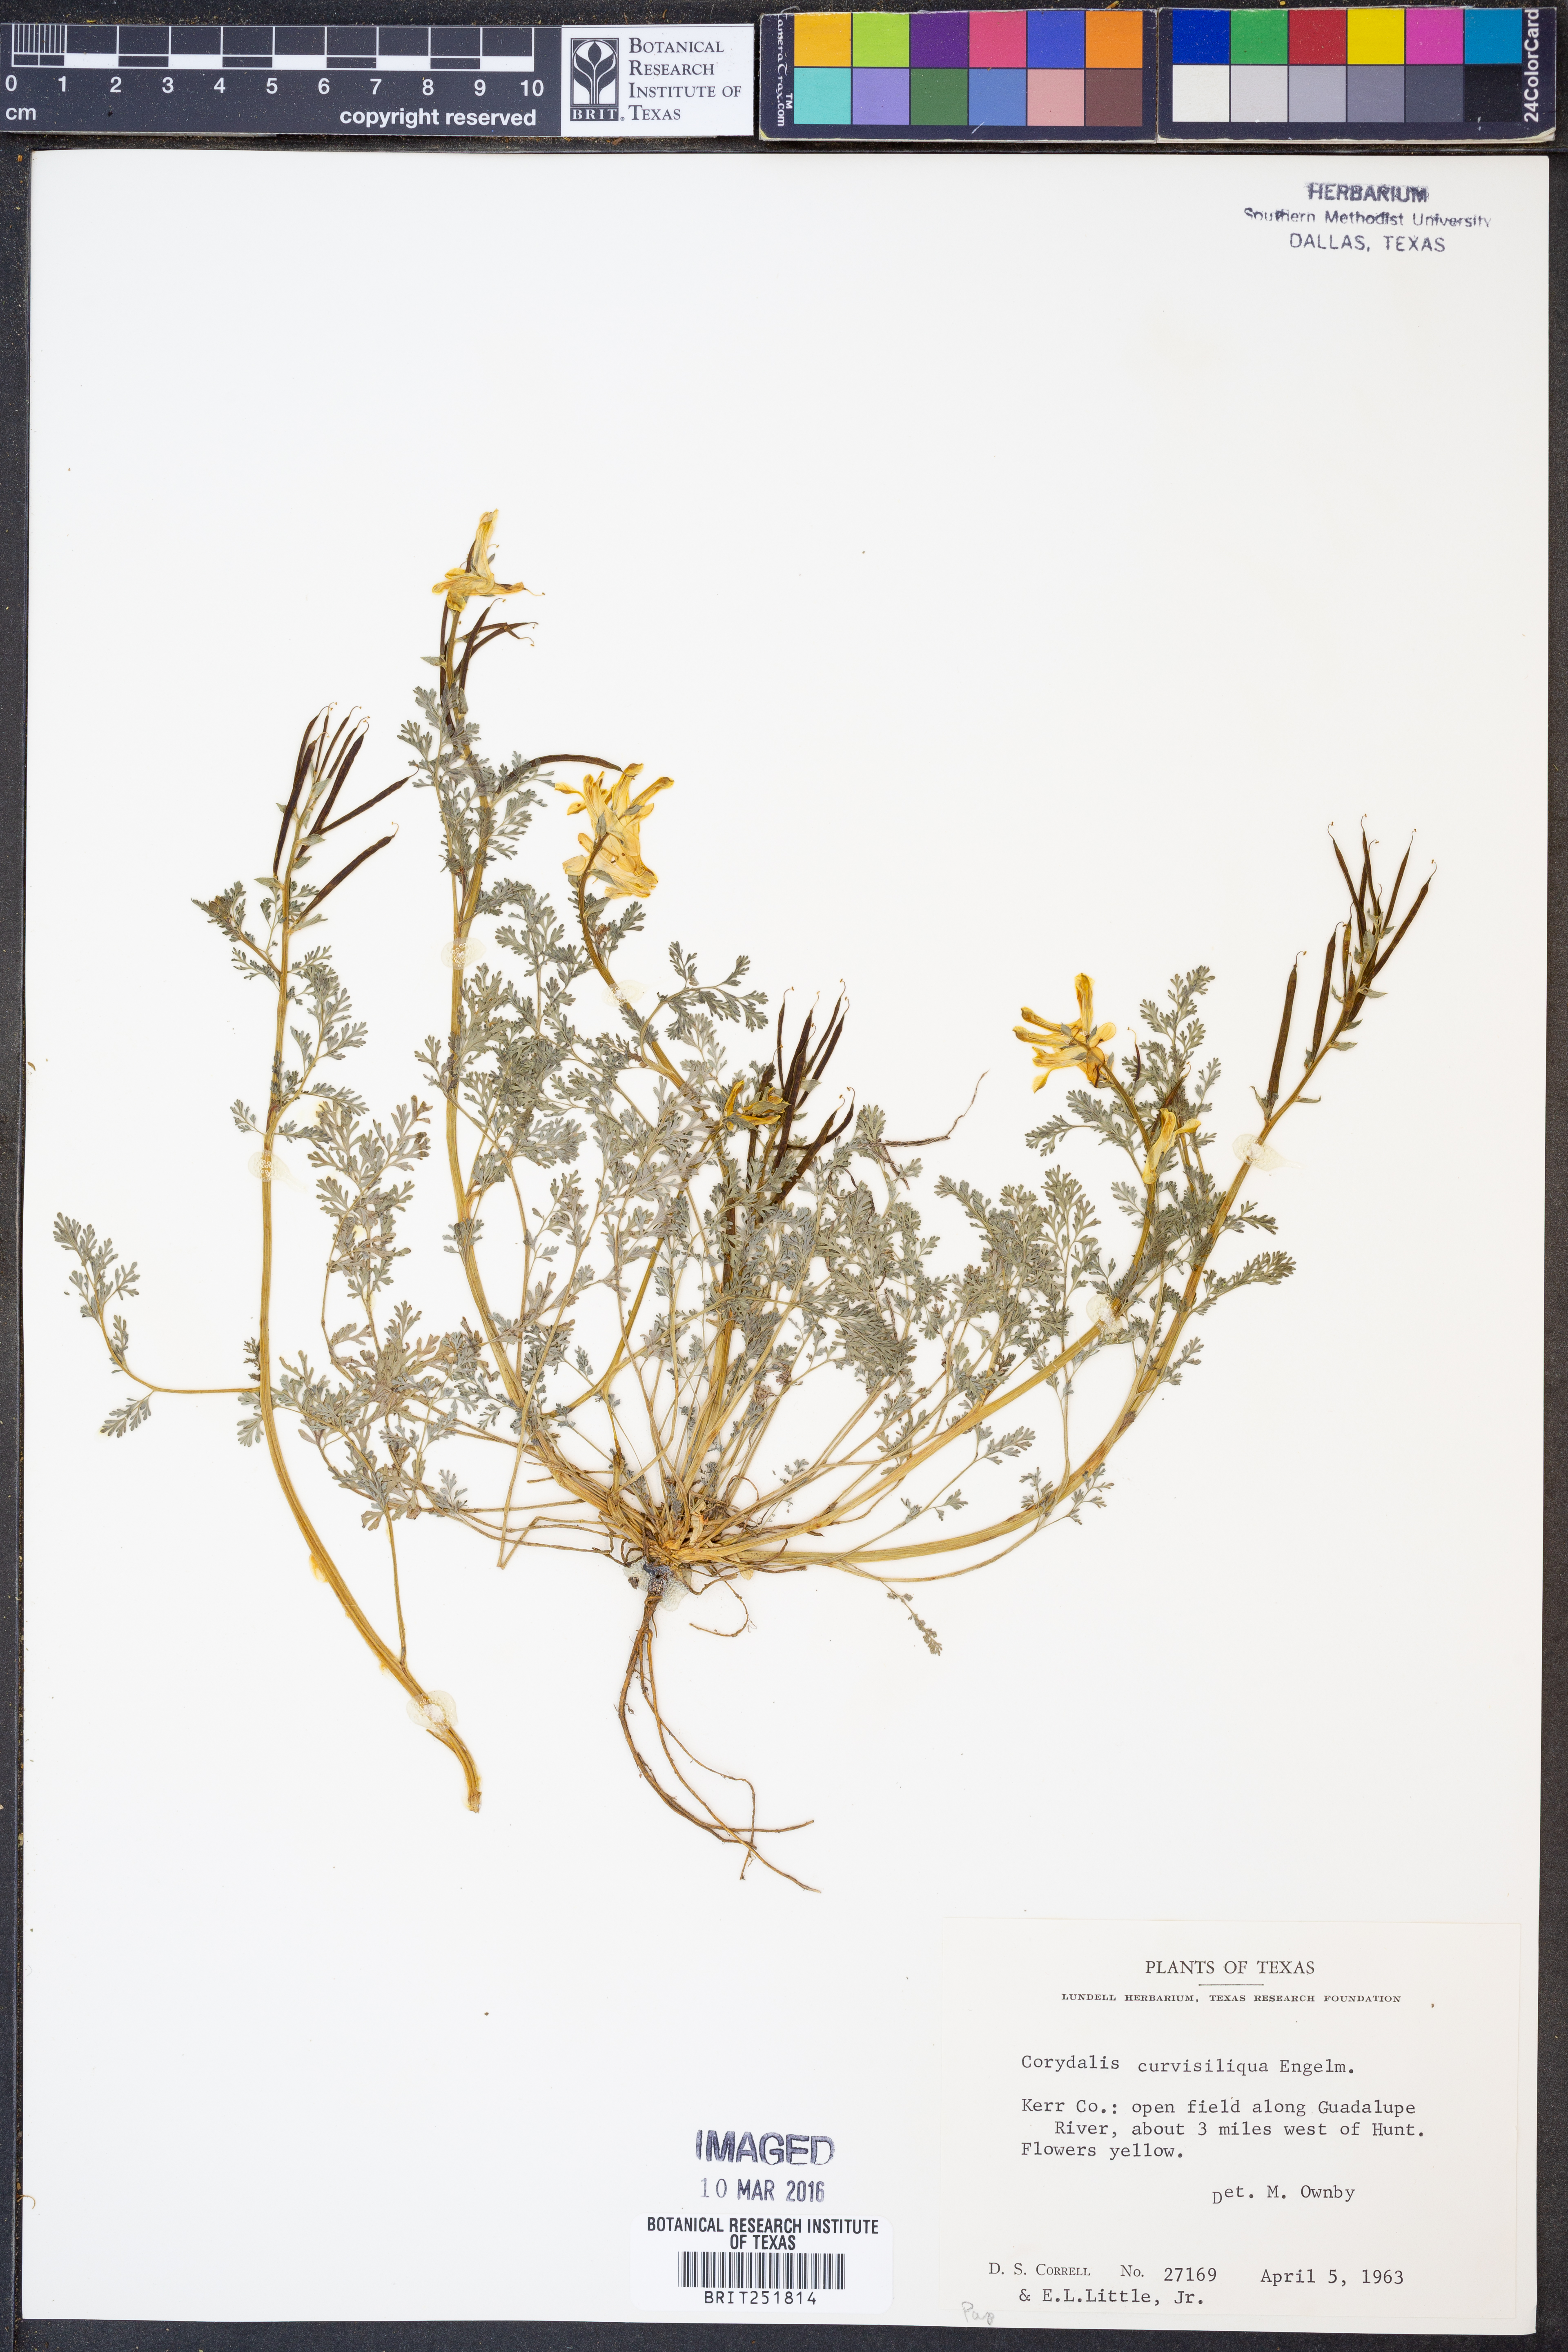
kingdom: Plantae
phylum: Tracheophyta
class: Magnoliopsida
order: Ranunculales
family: Papaveraceae
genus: Corydalis
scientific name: Corydalis curvisiliqua
